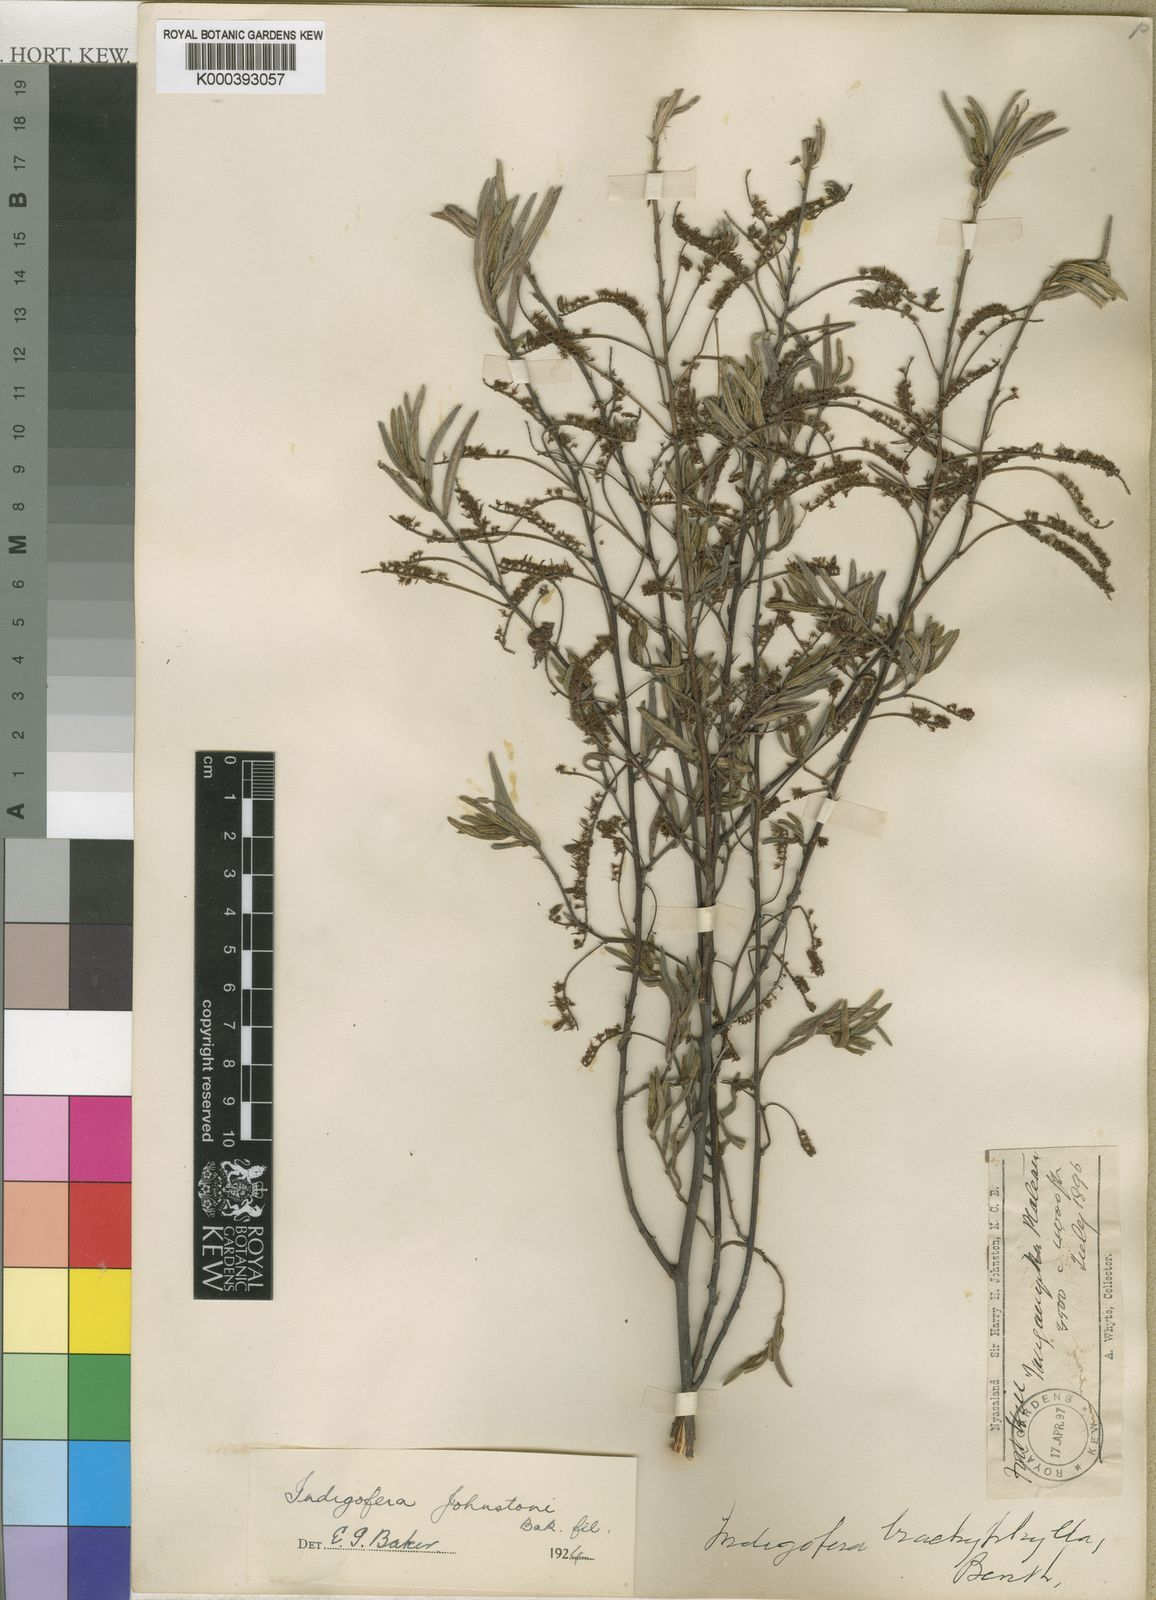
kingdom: Plantae
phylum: Tracheophyta
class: Magnoliopsida
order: Fabales
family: Fabaceae
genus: Indigofera
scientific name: Indigofera trachyphylla
